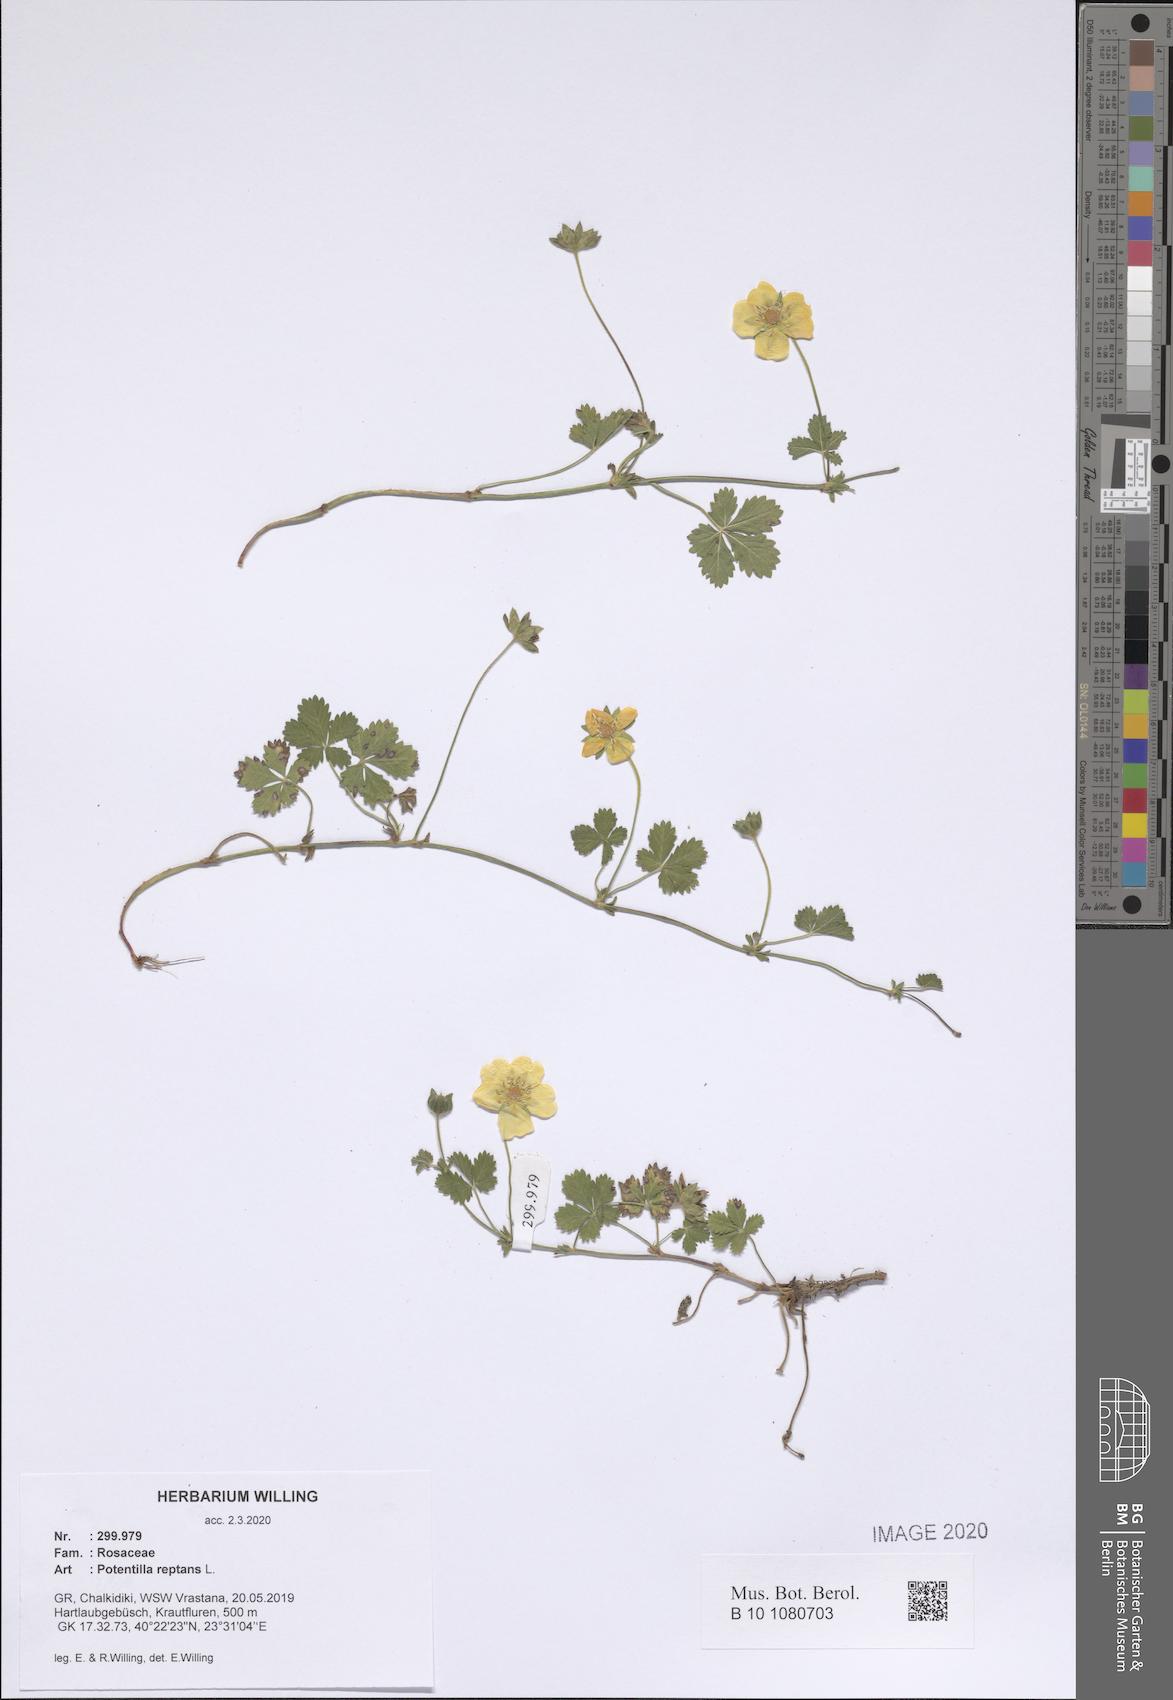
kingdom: Plantae
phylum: Tracheophyta
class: Magnoliopsida
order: Rosales
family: Rosaceae
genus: Potentilla
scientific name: Potentilla reptans
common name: Creeping cinquefoil
